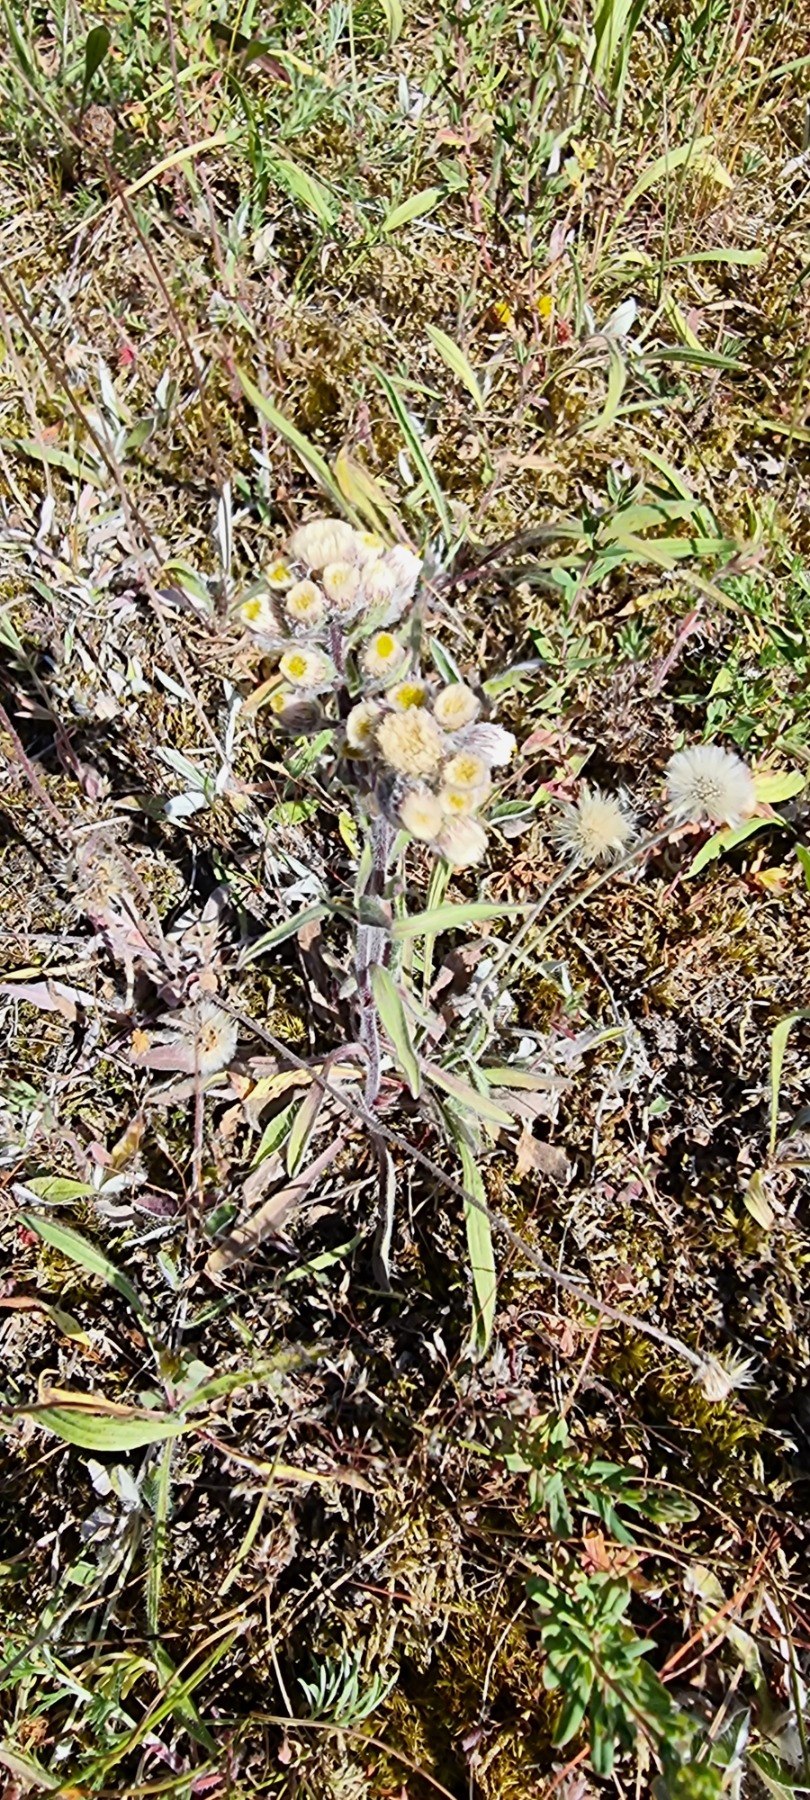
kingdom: Plantae
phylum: Tracheophyta
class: Magnoliopsida
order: Asterales
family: Asteraceae
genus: Erigeron
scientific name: Erigeron acris
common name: Bitter bakkestjerne
